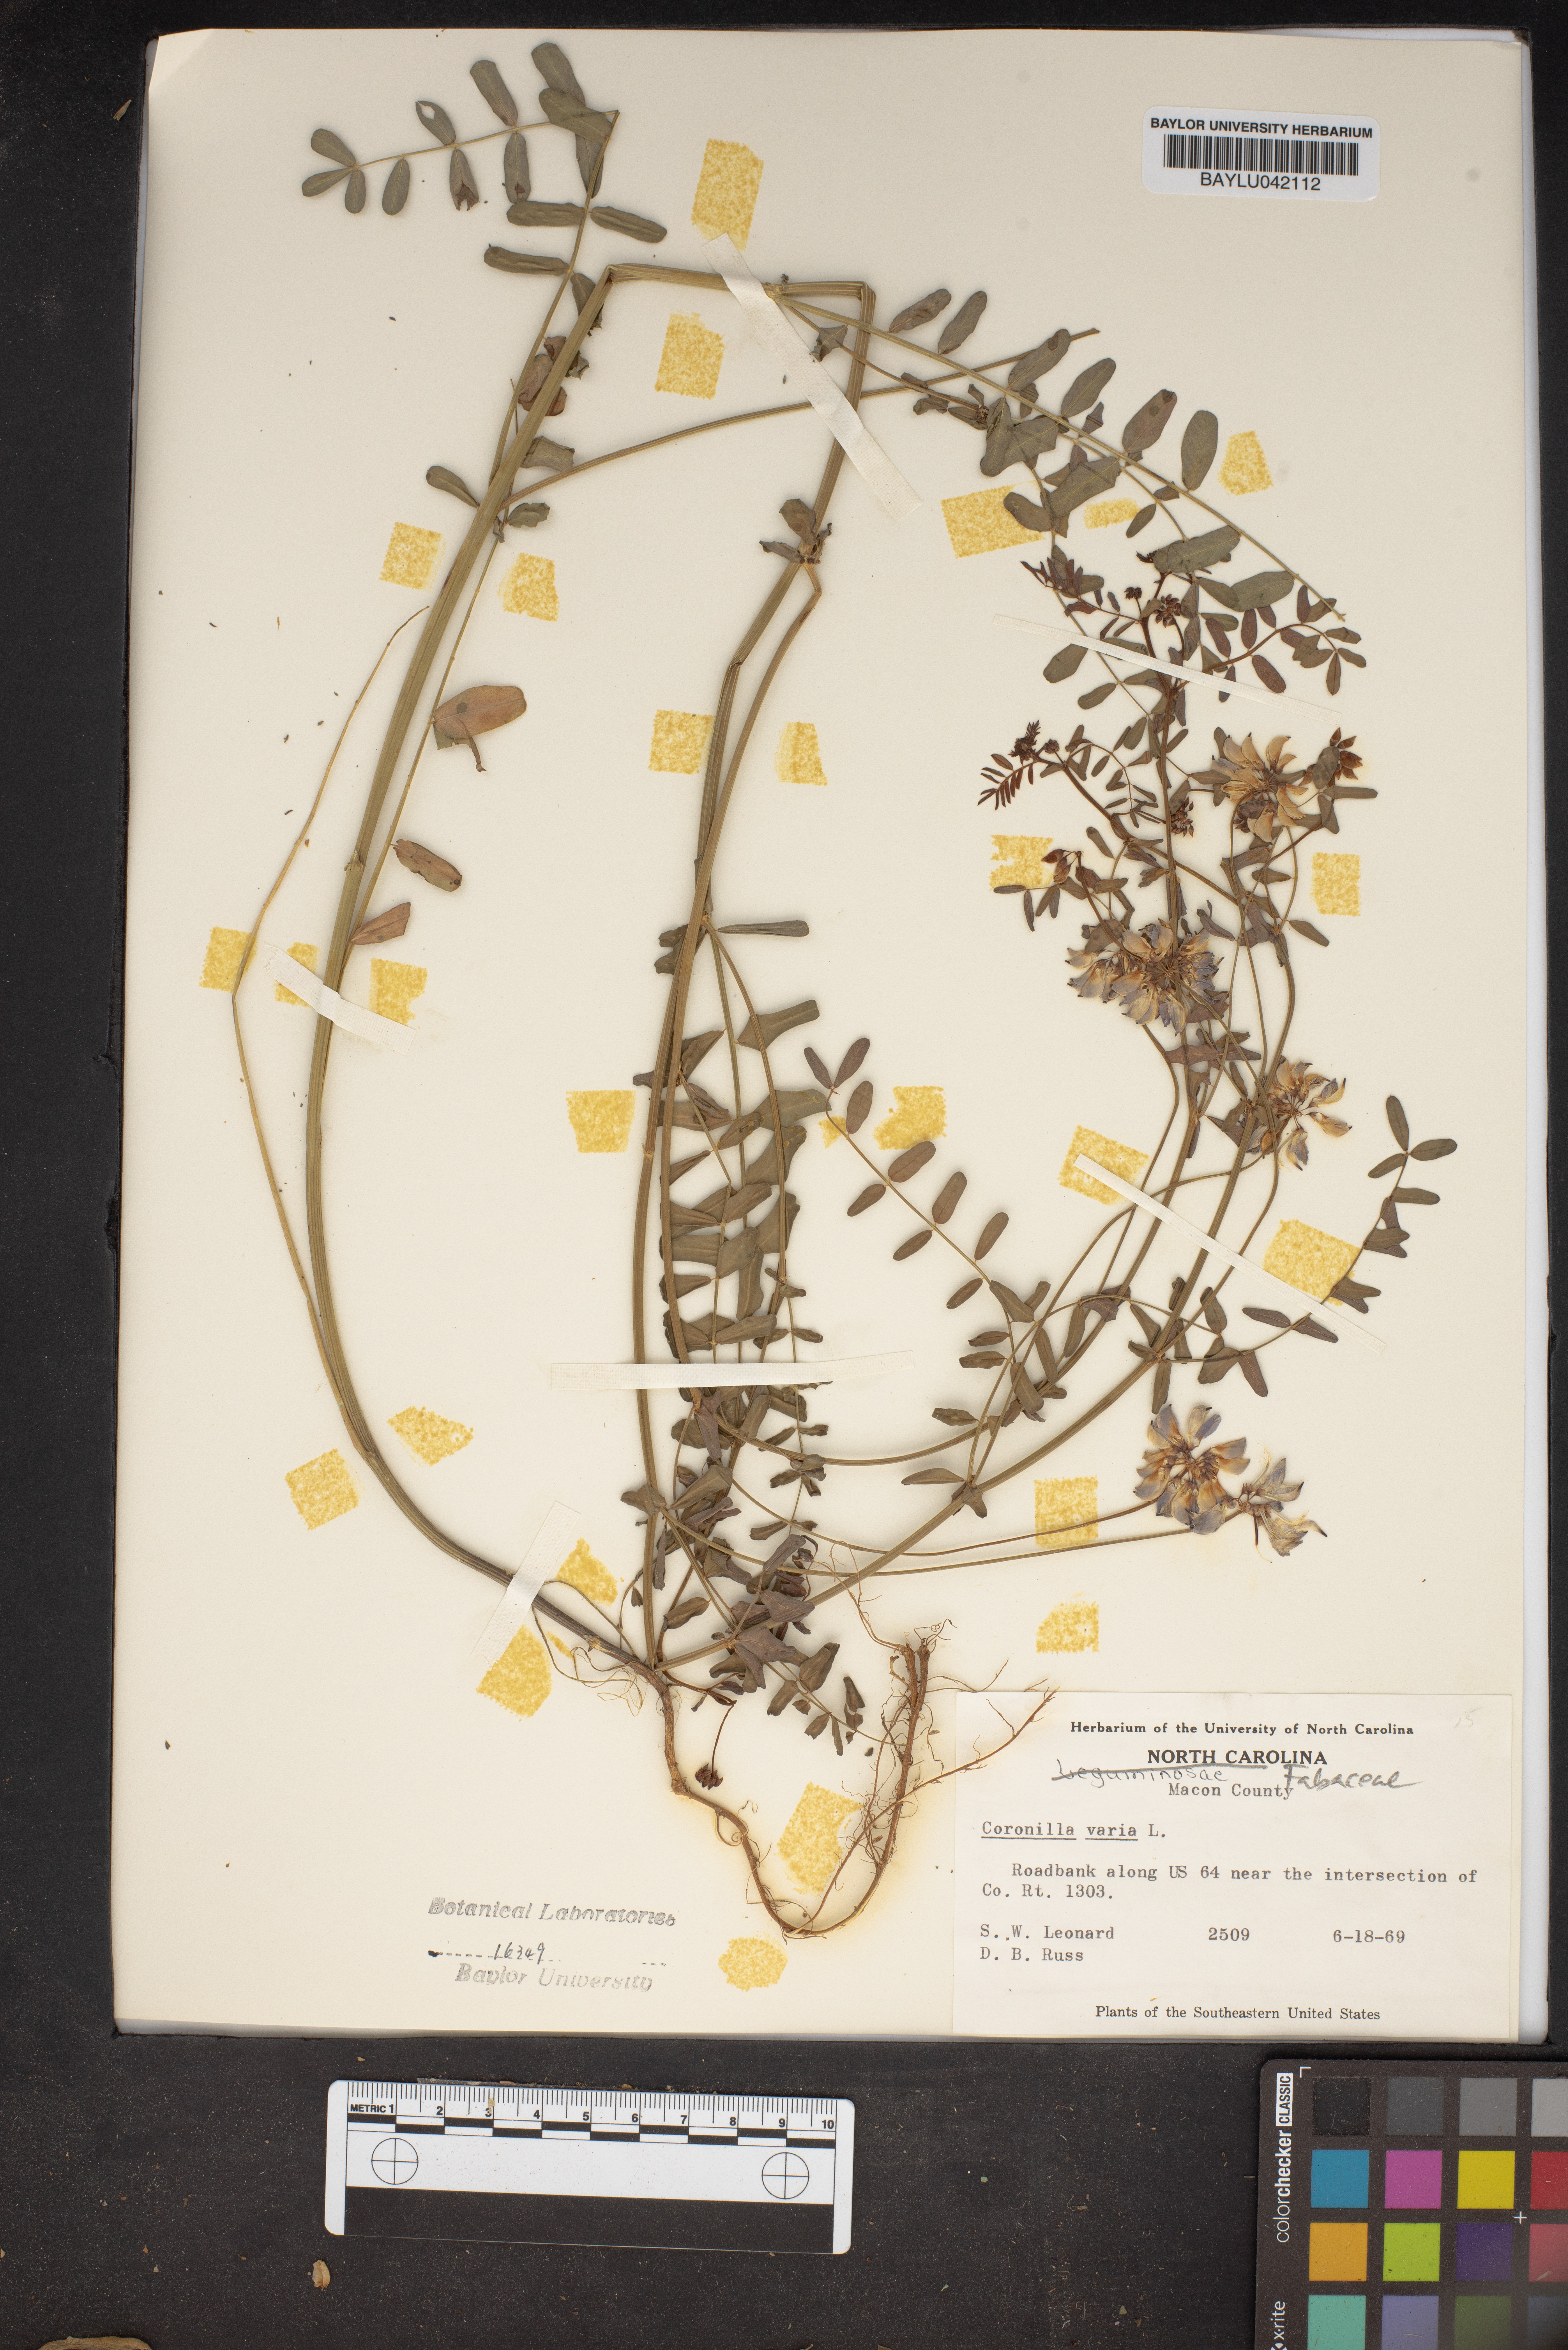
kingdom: Plantae
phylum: Tracheophyta
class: Magnoliopsida
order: Fabales
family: Fabaceae
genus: Coronilla
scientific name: Coronilla varia
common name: Crownvetch
